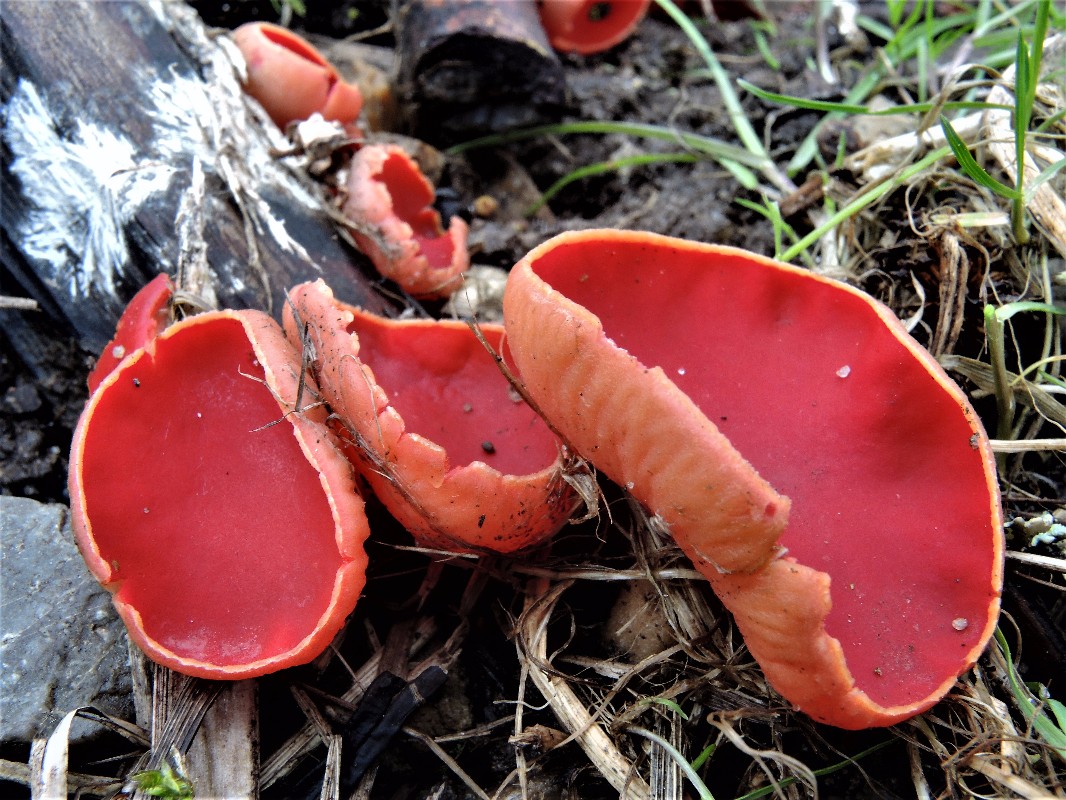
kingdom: Fungi
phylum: Ascomycota
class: Pezizomycetes
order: Pezizales
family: Sarcoscyphaceae
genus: Sarcoscypha
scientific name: Sarcoscypha austriaca
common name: krølhåret pragtbæger
